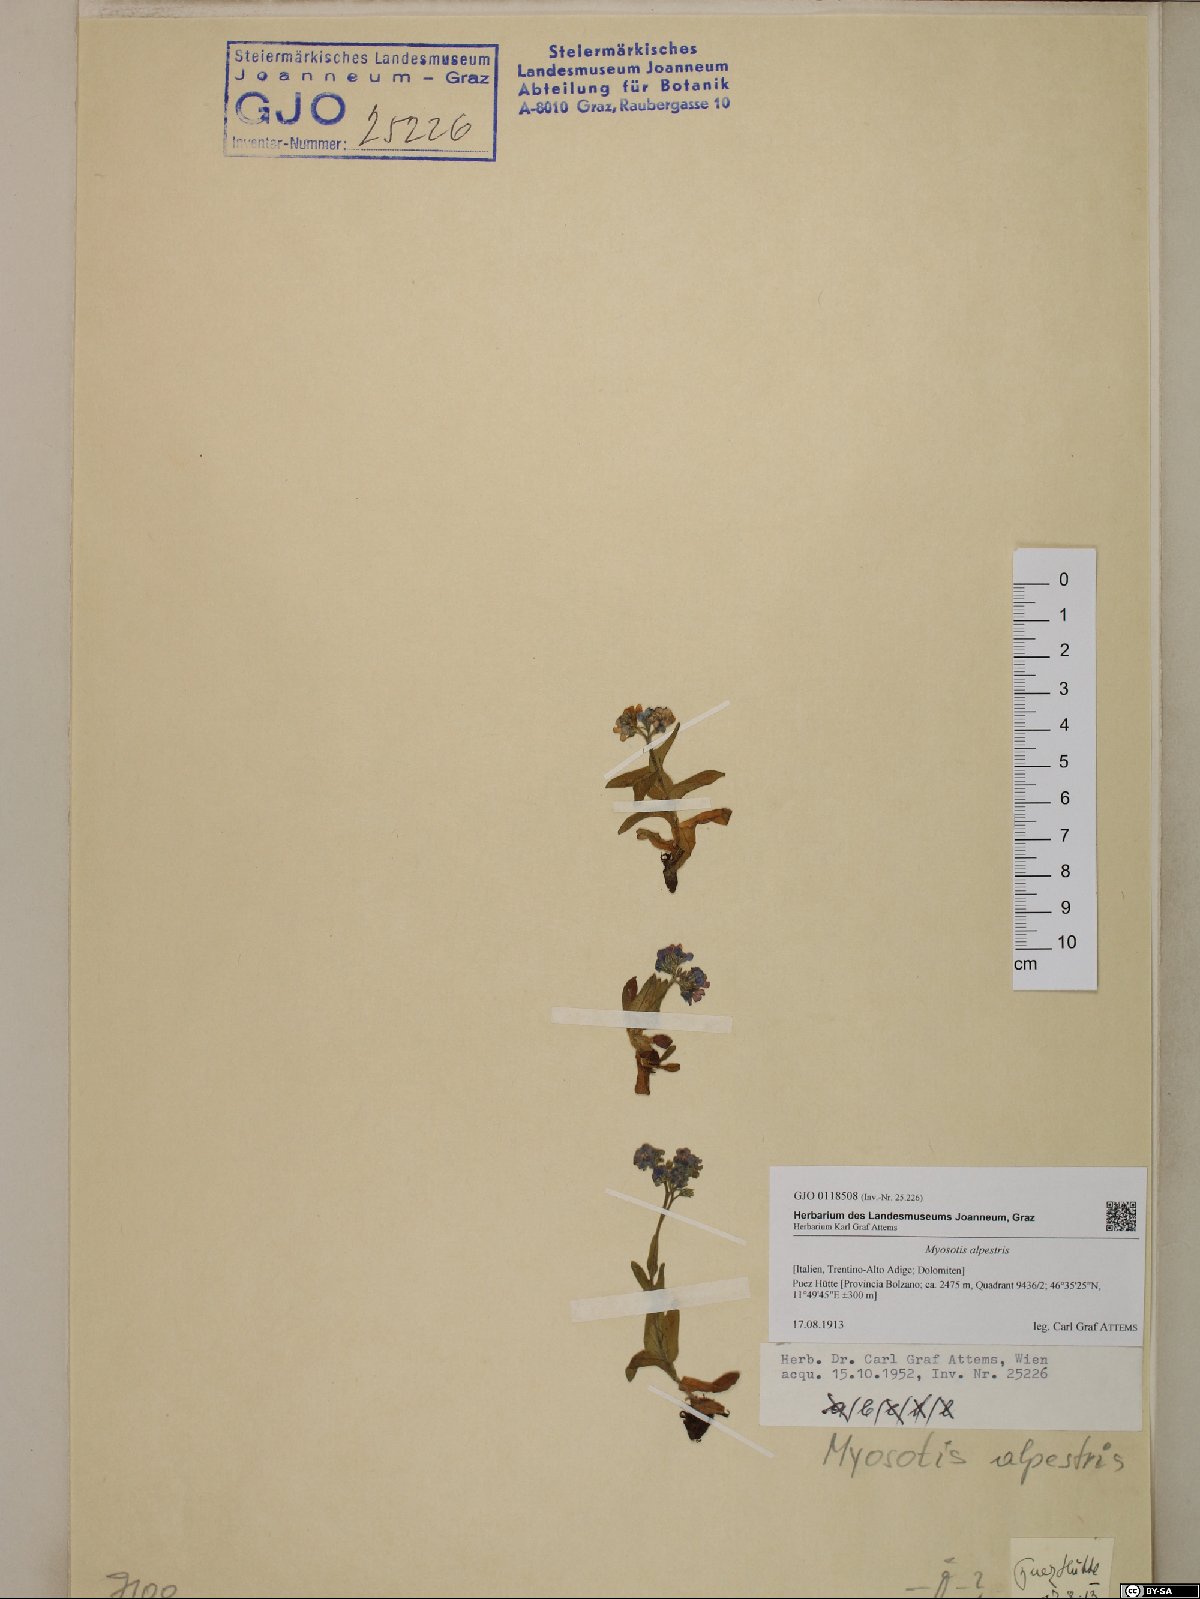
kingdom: Plantae
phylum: Tracheophyta
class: Magnoliopsida
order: Boraginales
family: Boraginaceae
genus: Myosotis
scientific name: Myosotis alpestris
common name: Alpine forget-me-not
